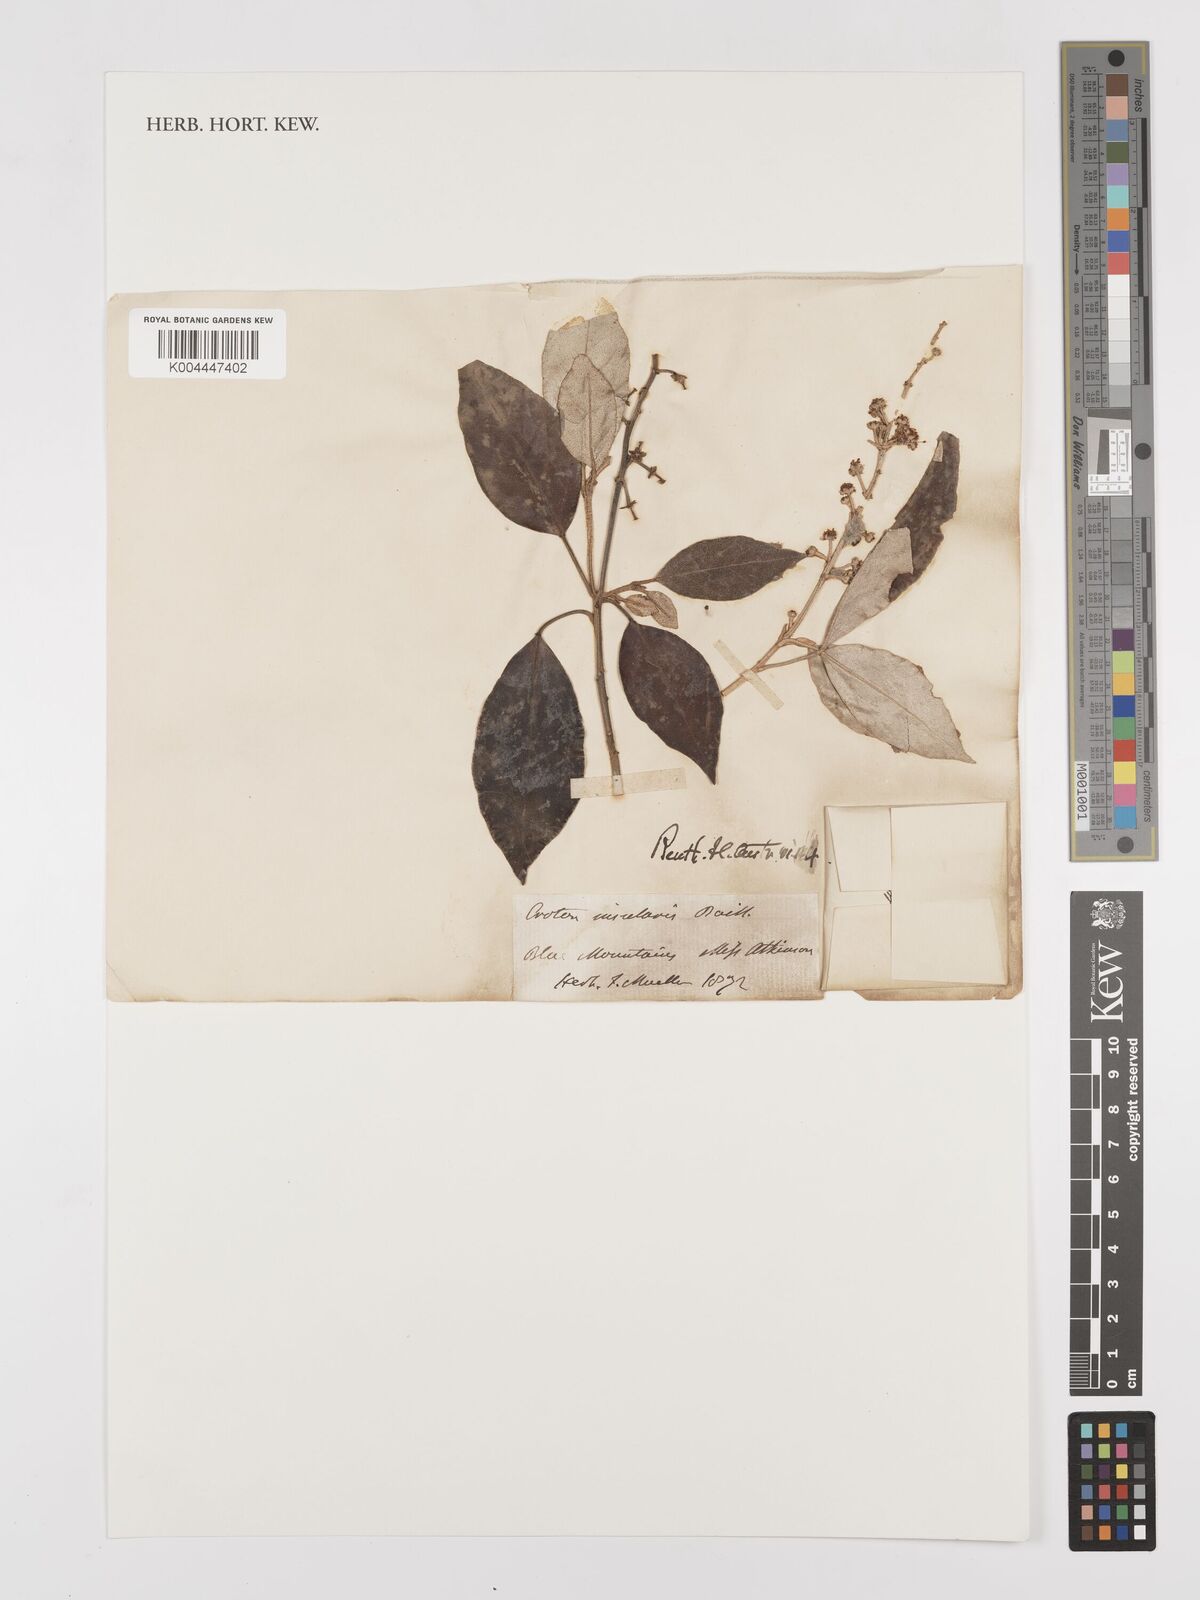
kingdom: Plantae
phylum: Tracheophyta
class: Magnoliopsida
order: Malpighiales
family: Euphorbiaceae
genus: Croton
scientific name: Croton insularis
